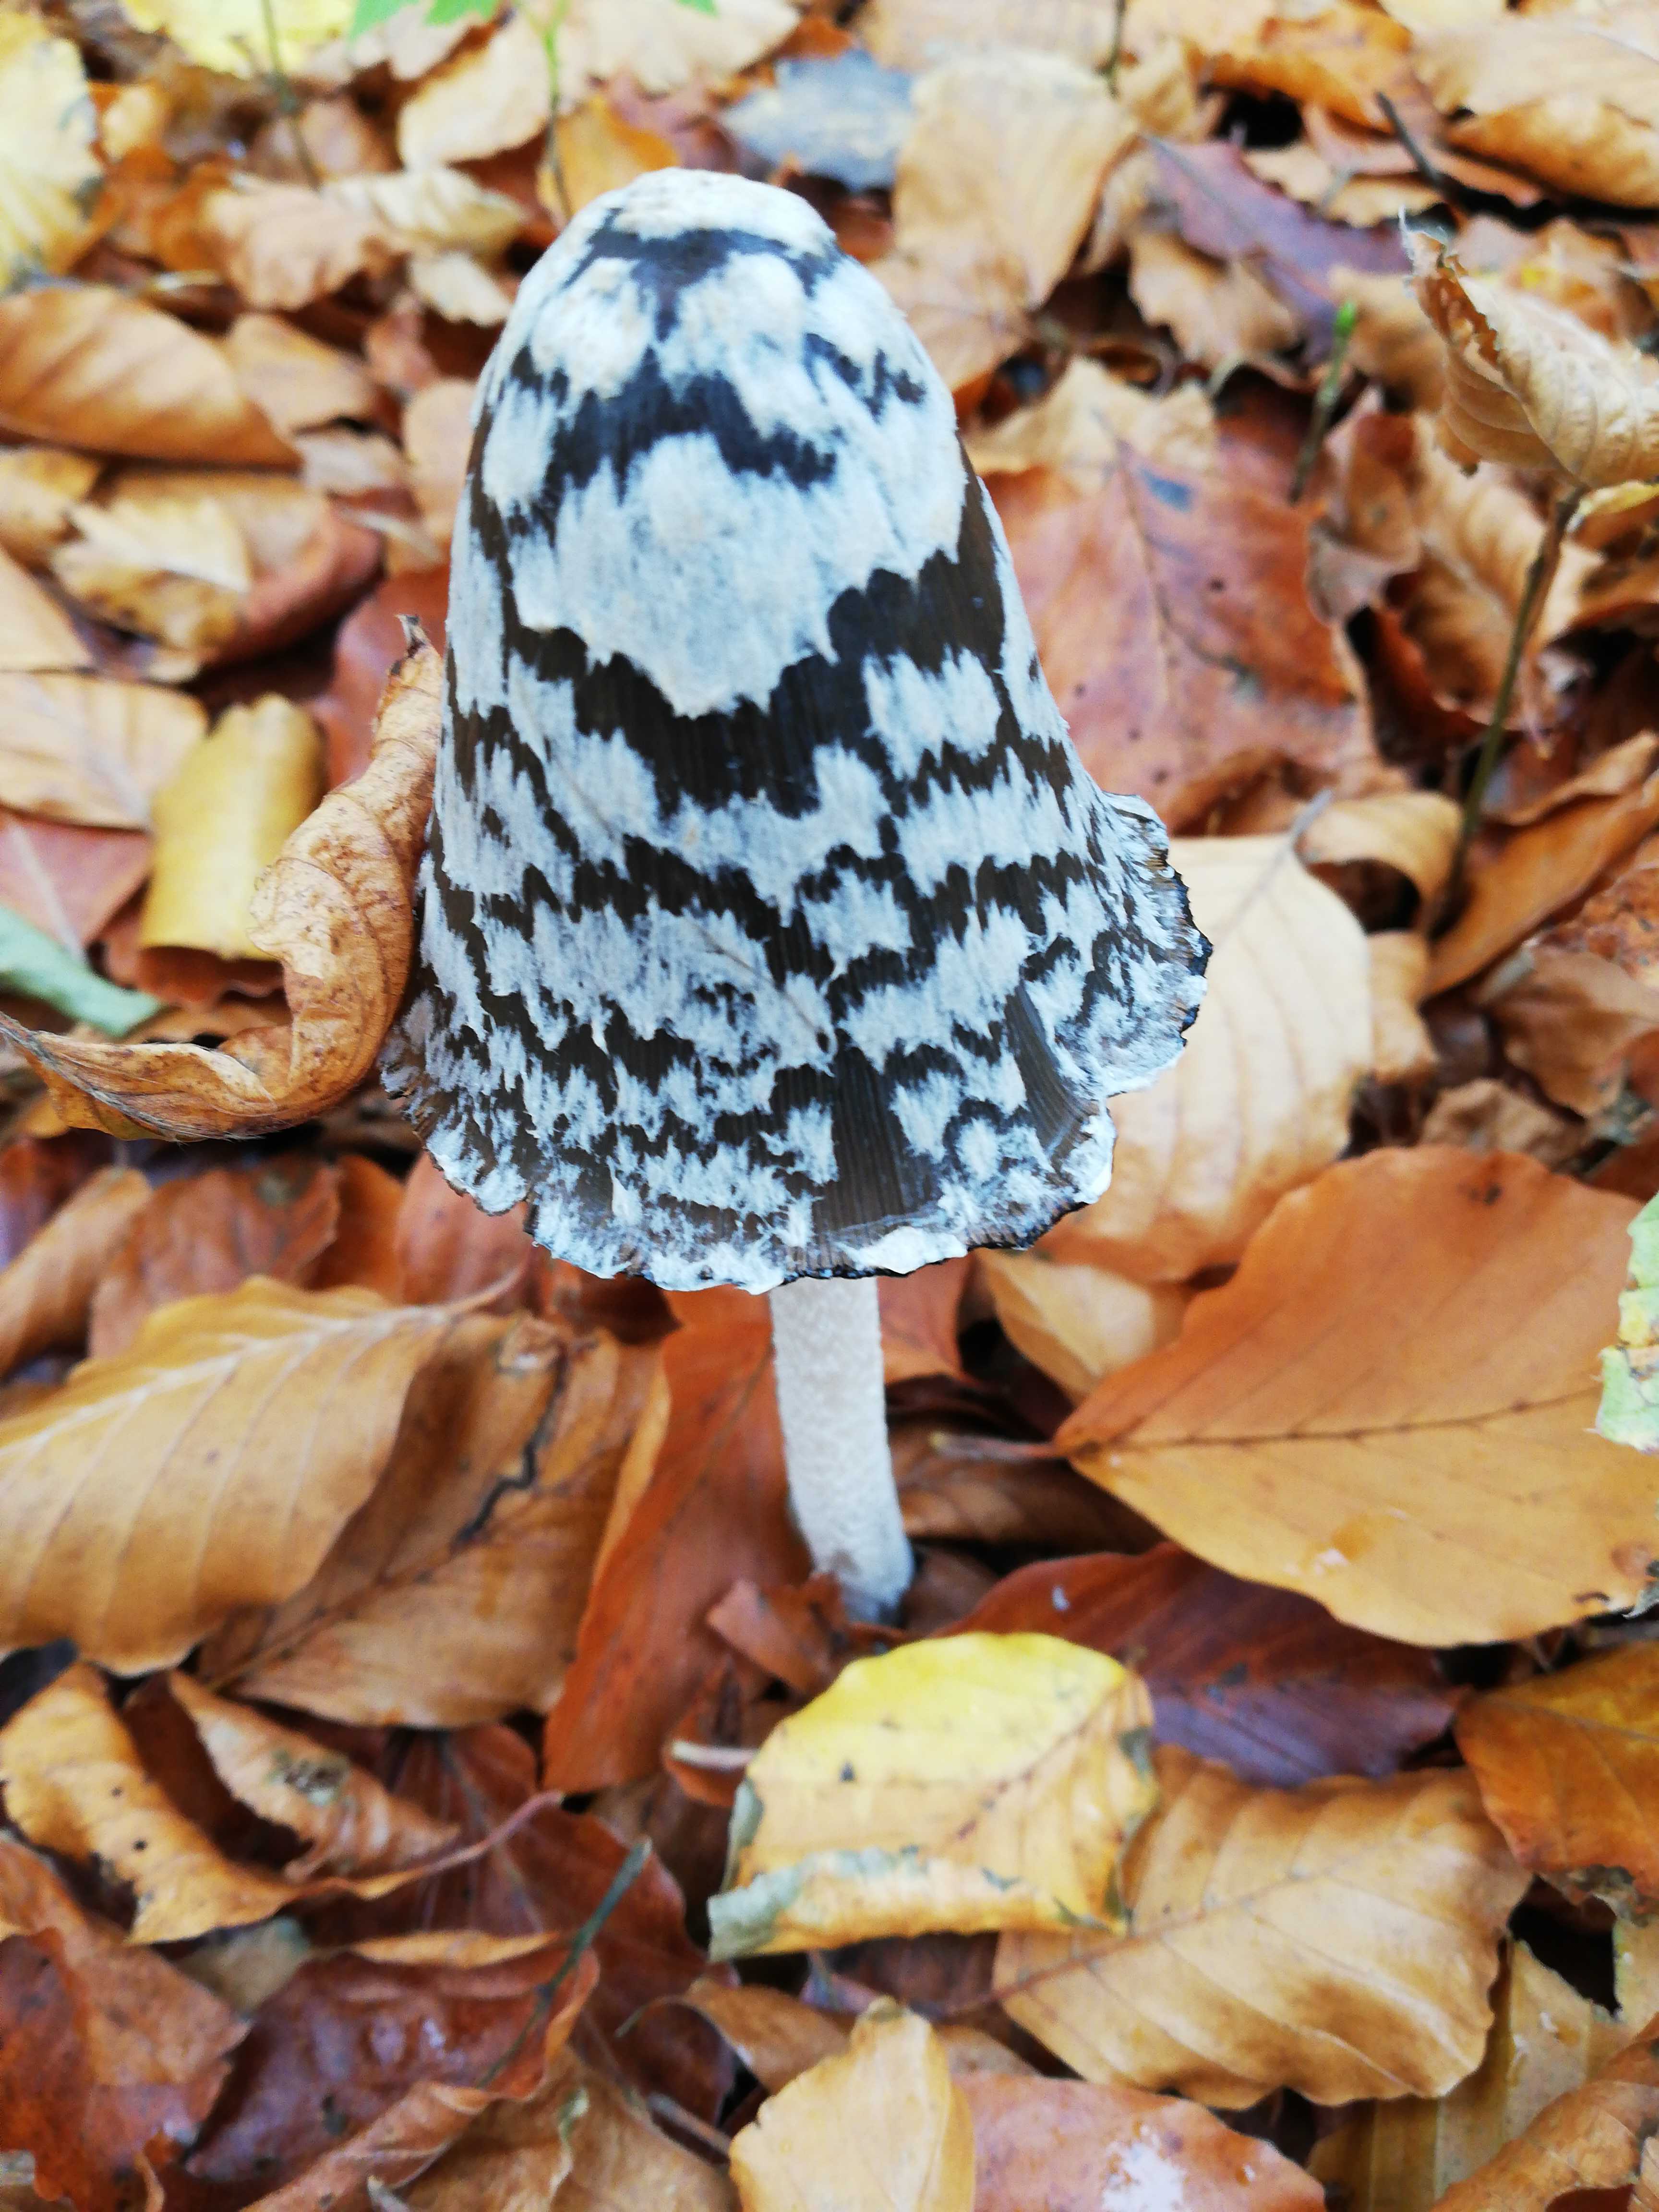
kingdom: Fungi
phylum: Basidiomycota
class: Agaricomycetes
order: Agaricales
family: Psathyrellaceae
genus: Coprinopsis
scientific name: Coprinopsis picacea
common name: skade-blækhat
